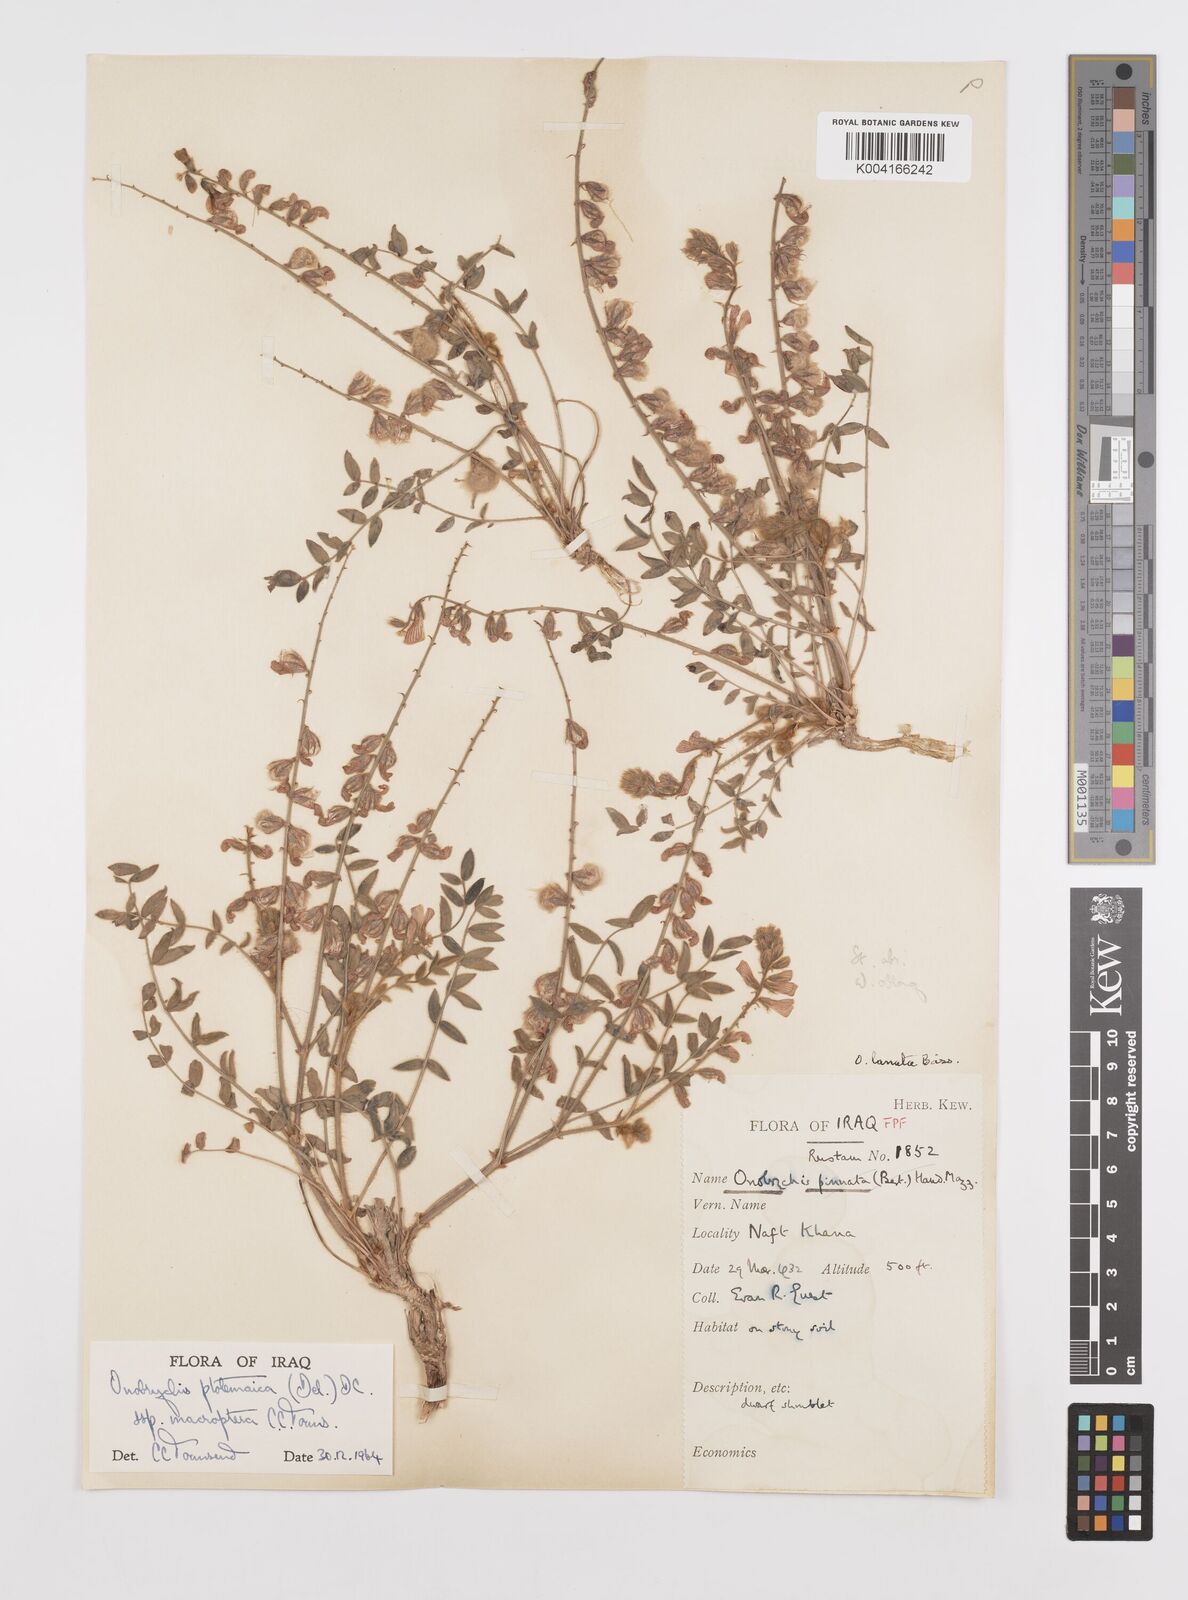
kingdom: Plantae
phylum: Tracheophyta
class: Magnoliopsida
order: Fabales
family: Fabaceae
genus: Onobrychis
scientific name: Onobrychis ptolemaica
